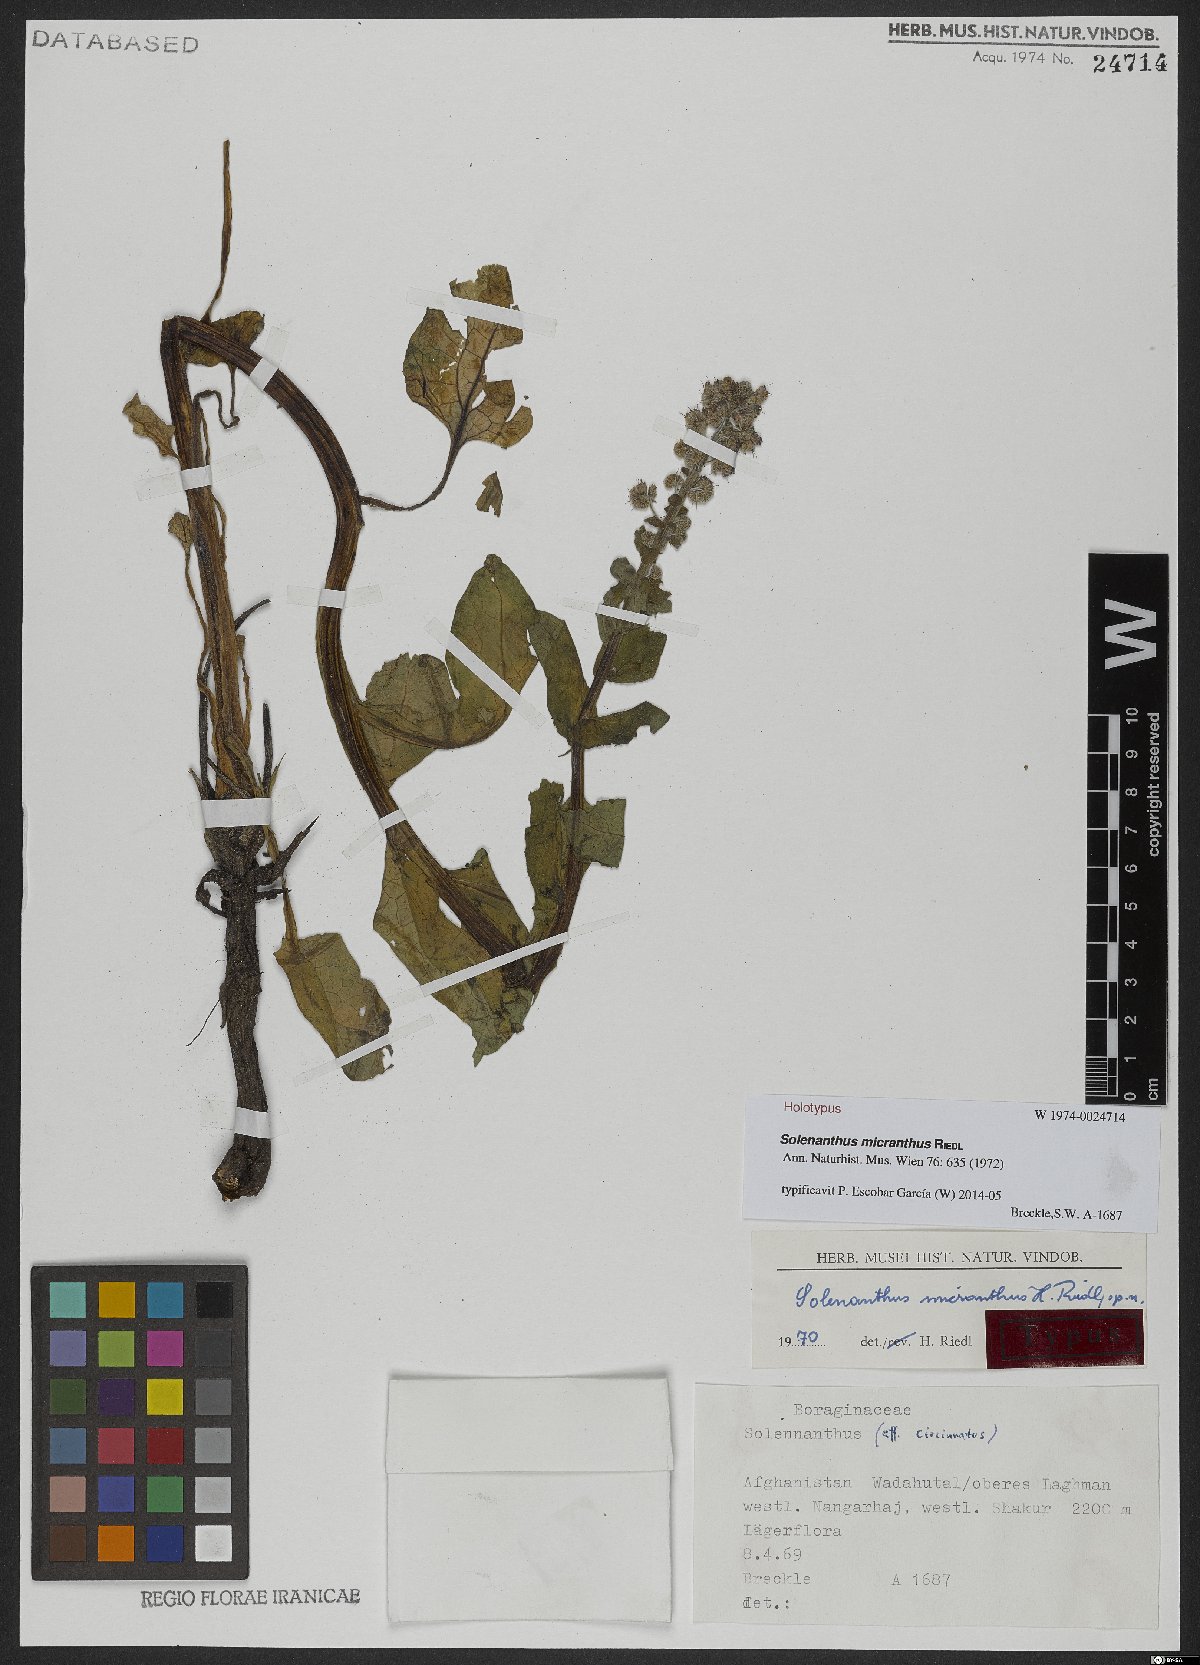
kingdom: Plantae
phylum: Tracheophyta
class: Magnoliopsida
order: Boraginales
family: Boraginaceae
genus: Solenanthus
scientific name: Solenanthus micranthus
